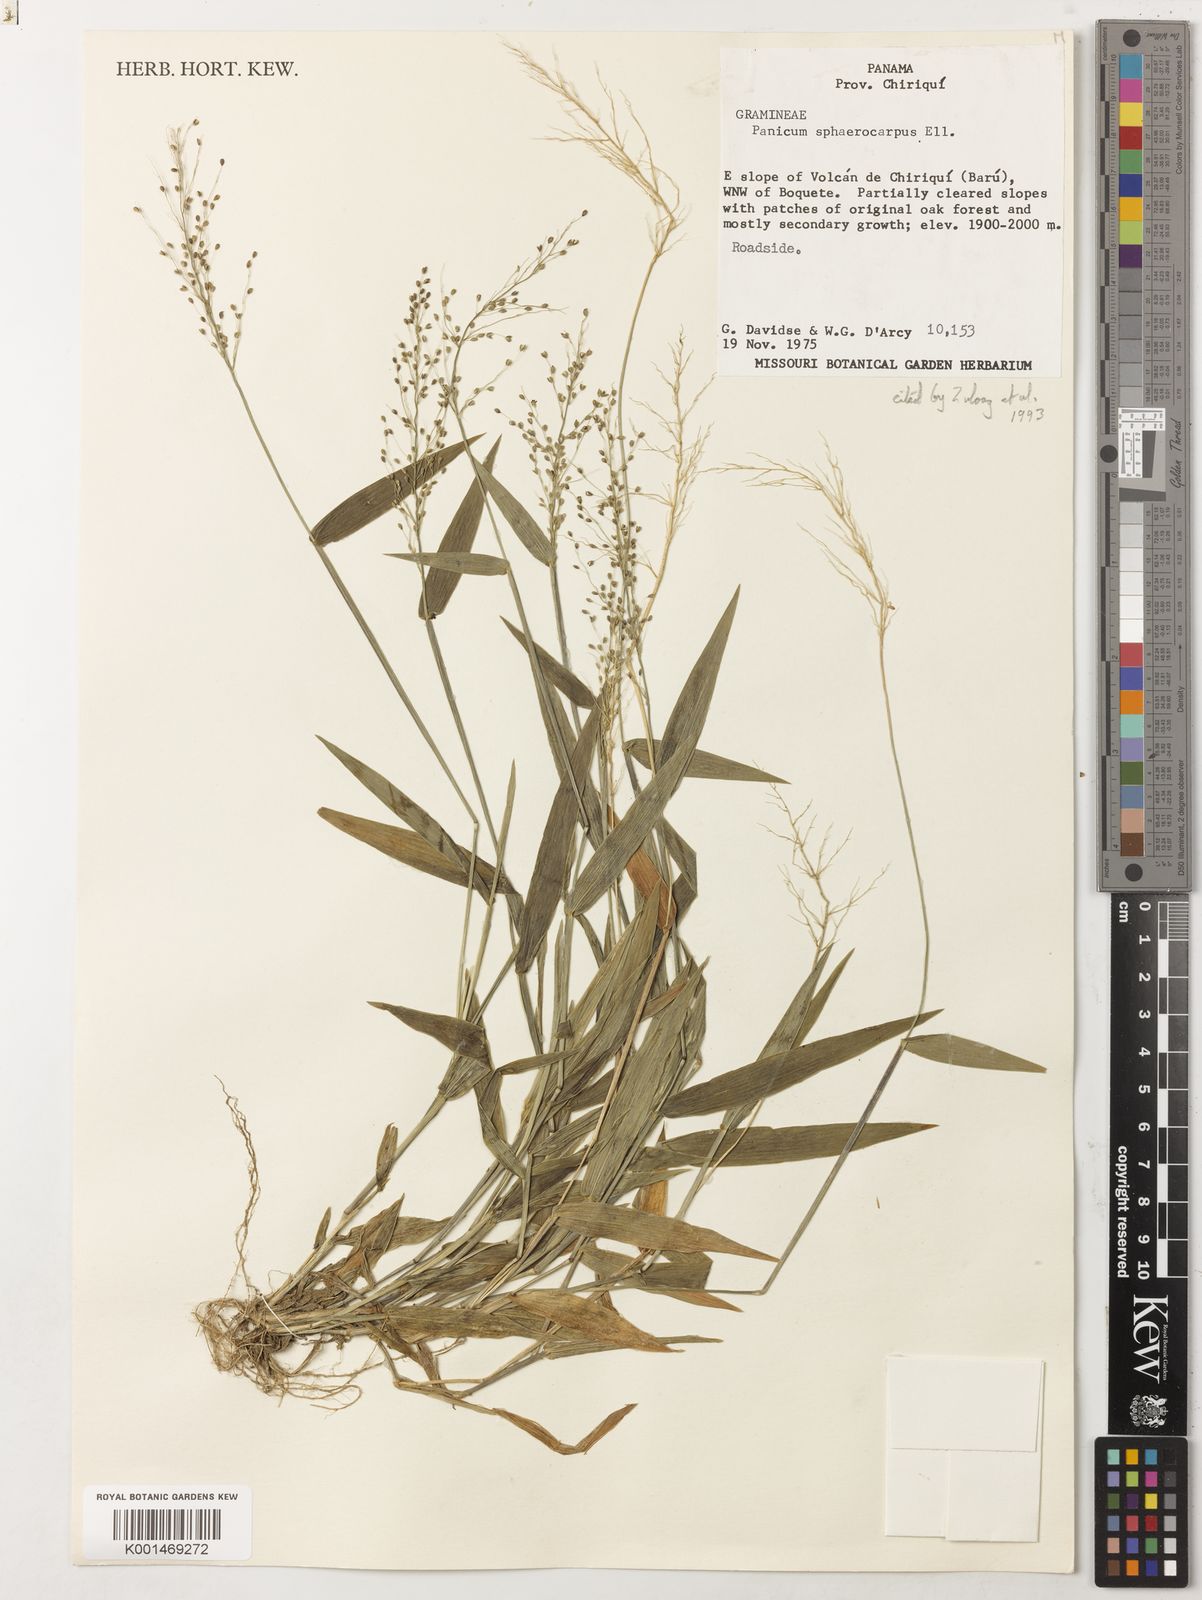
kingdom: Plantae
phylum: Tracheophyta
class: Liliopsida
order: Poales
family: Poaceae
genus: Panicum
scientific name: Panicum
